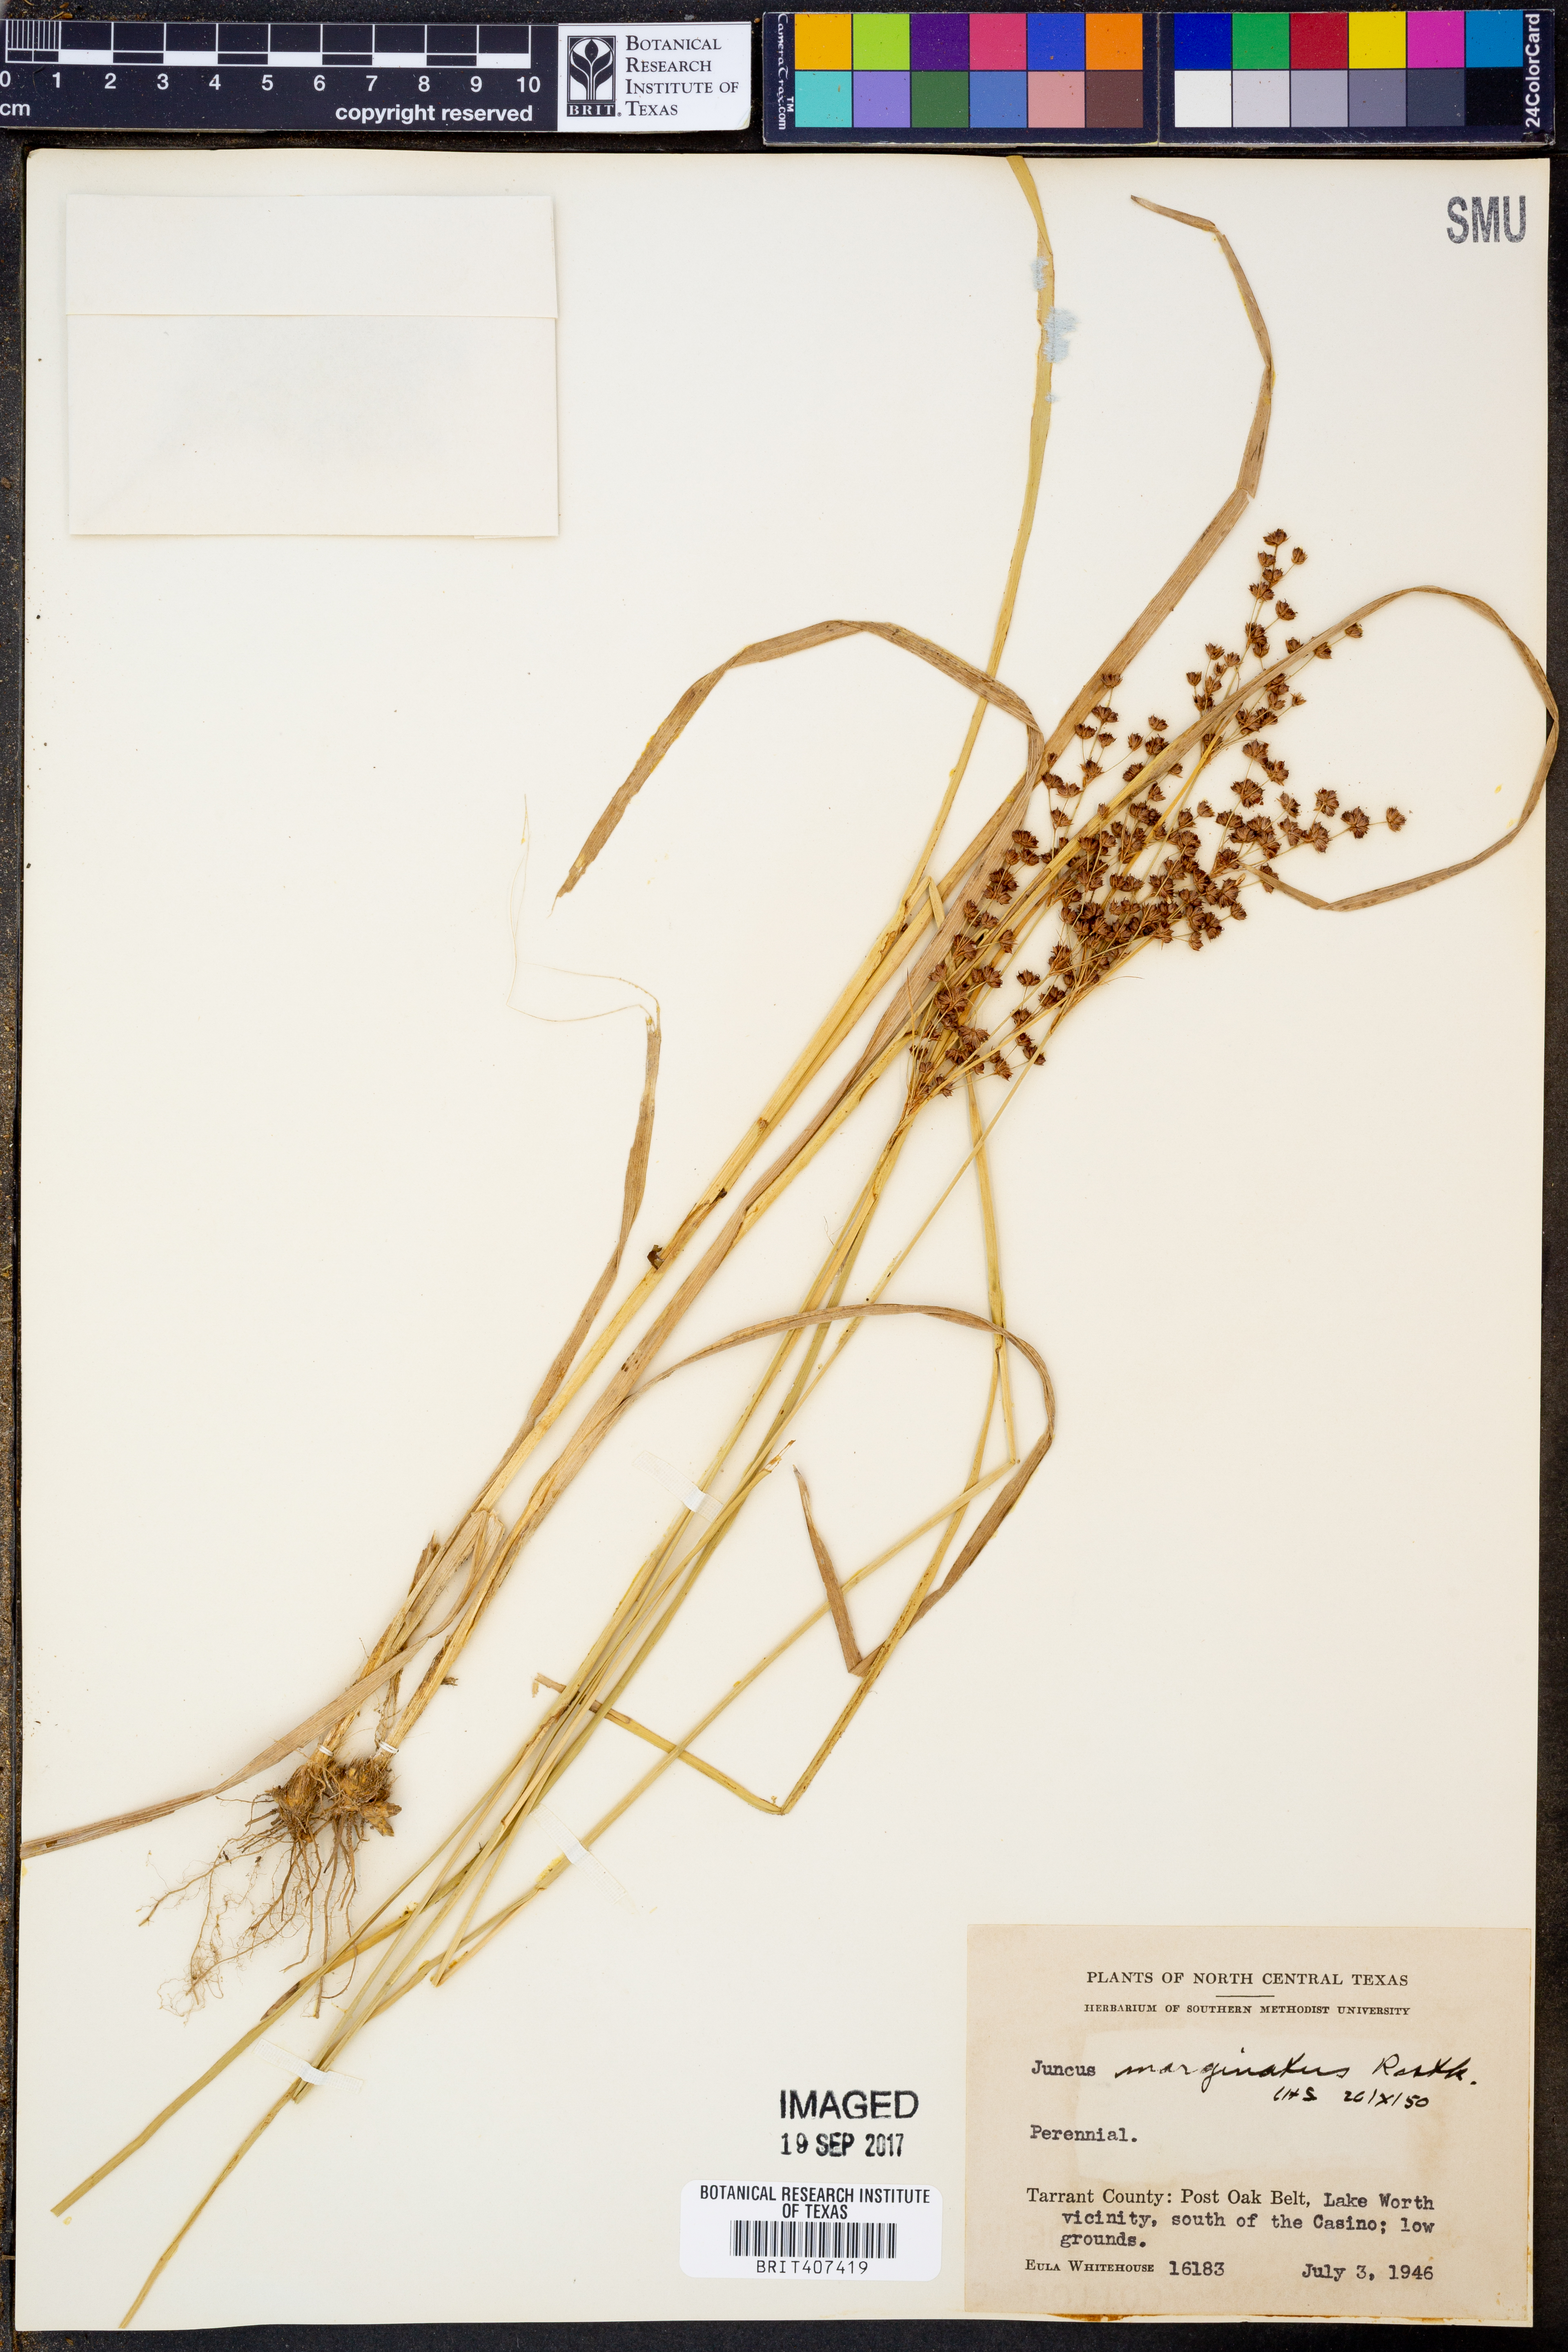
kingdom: Plantae
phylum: Tracheophyta
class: Liliopsida
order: Poales
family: Juncaceae
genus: Juncus
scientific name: Juncus marginatus
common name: Grass-leaf rush
